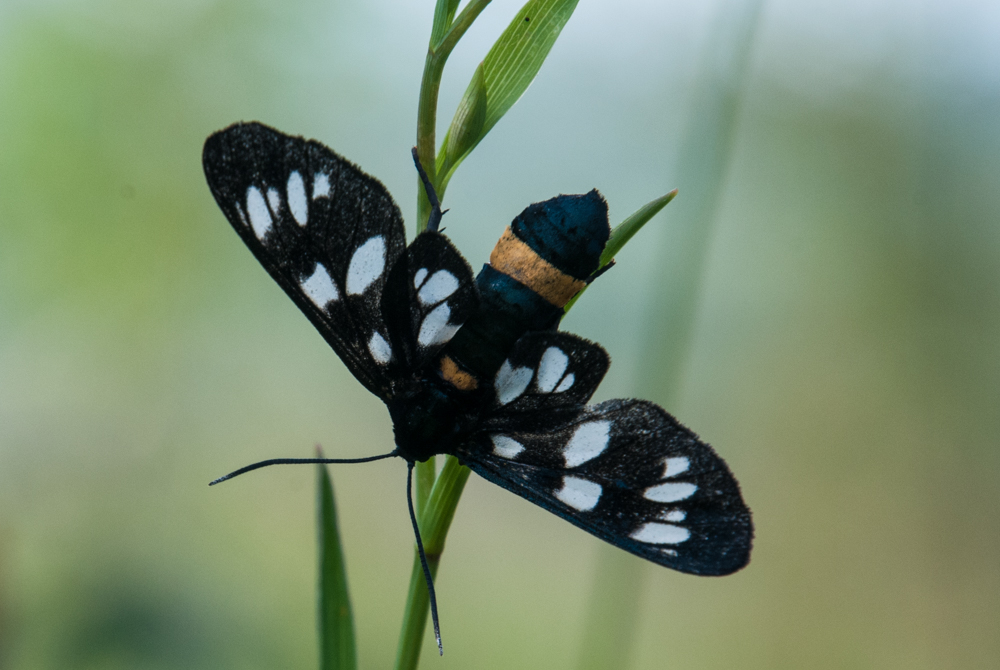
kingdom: Animalia
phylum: Arthropoda
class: Insecta
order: Lepidoptera
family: Erebidae
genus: Amata
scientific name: Amata phegea
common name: Nine-spotted
